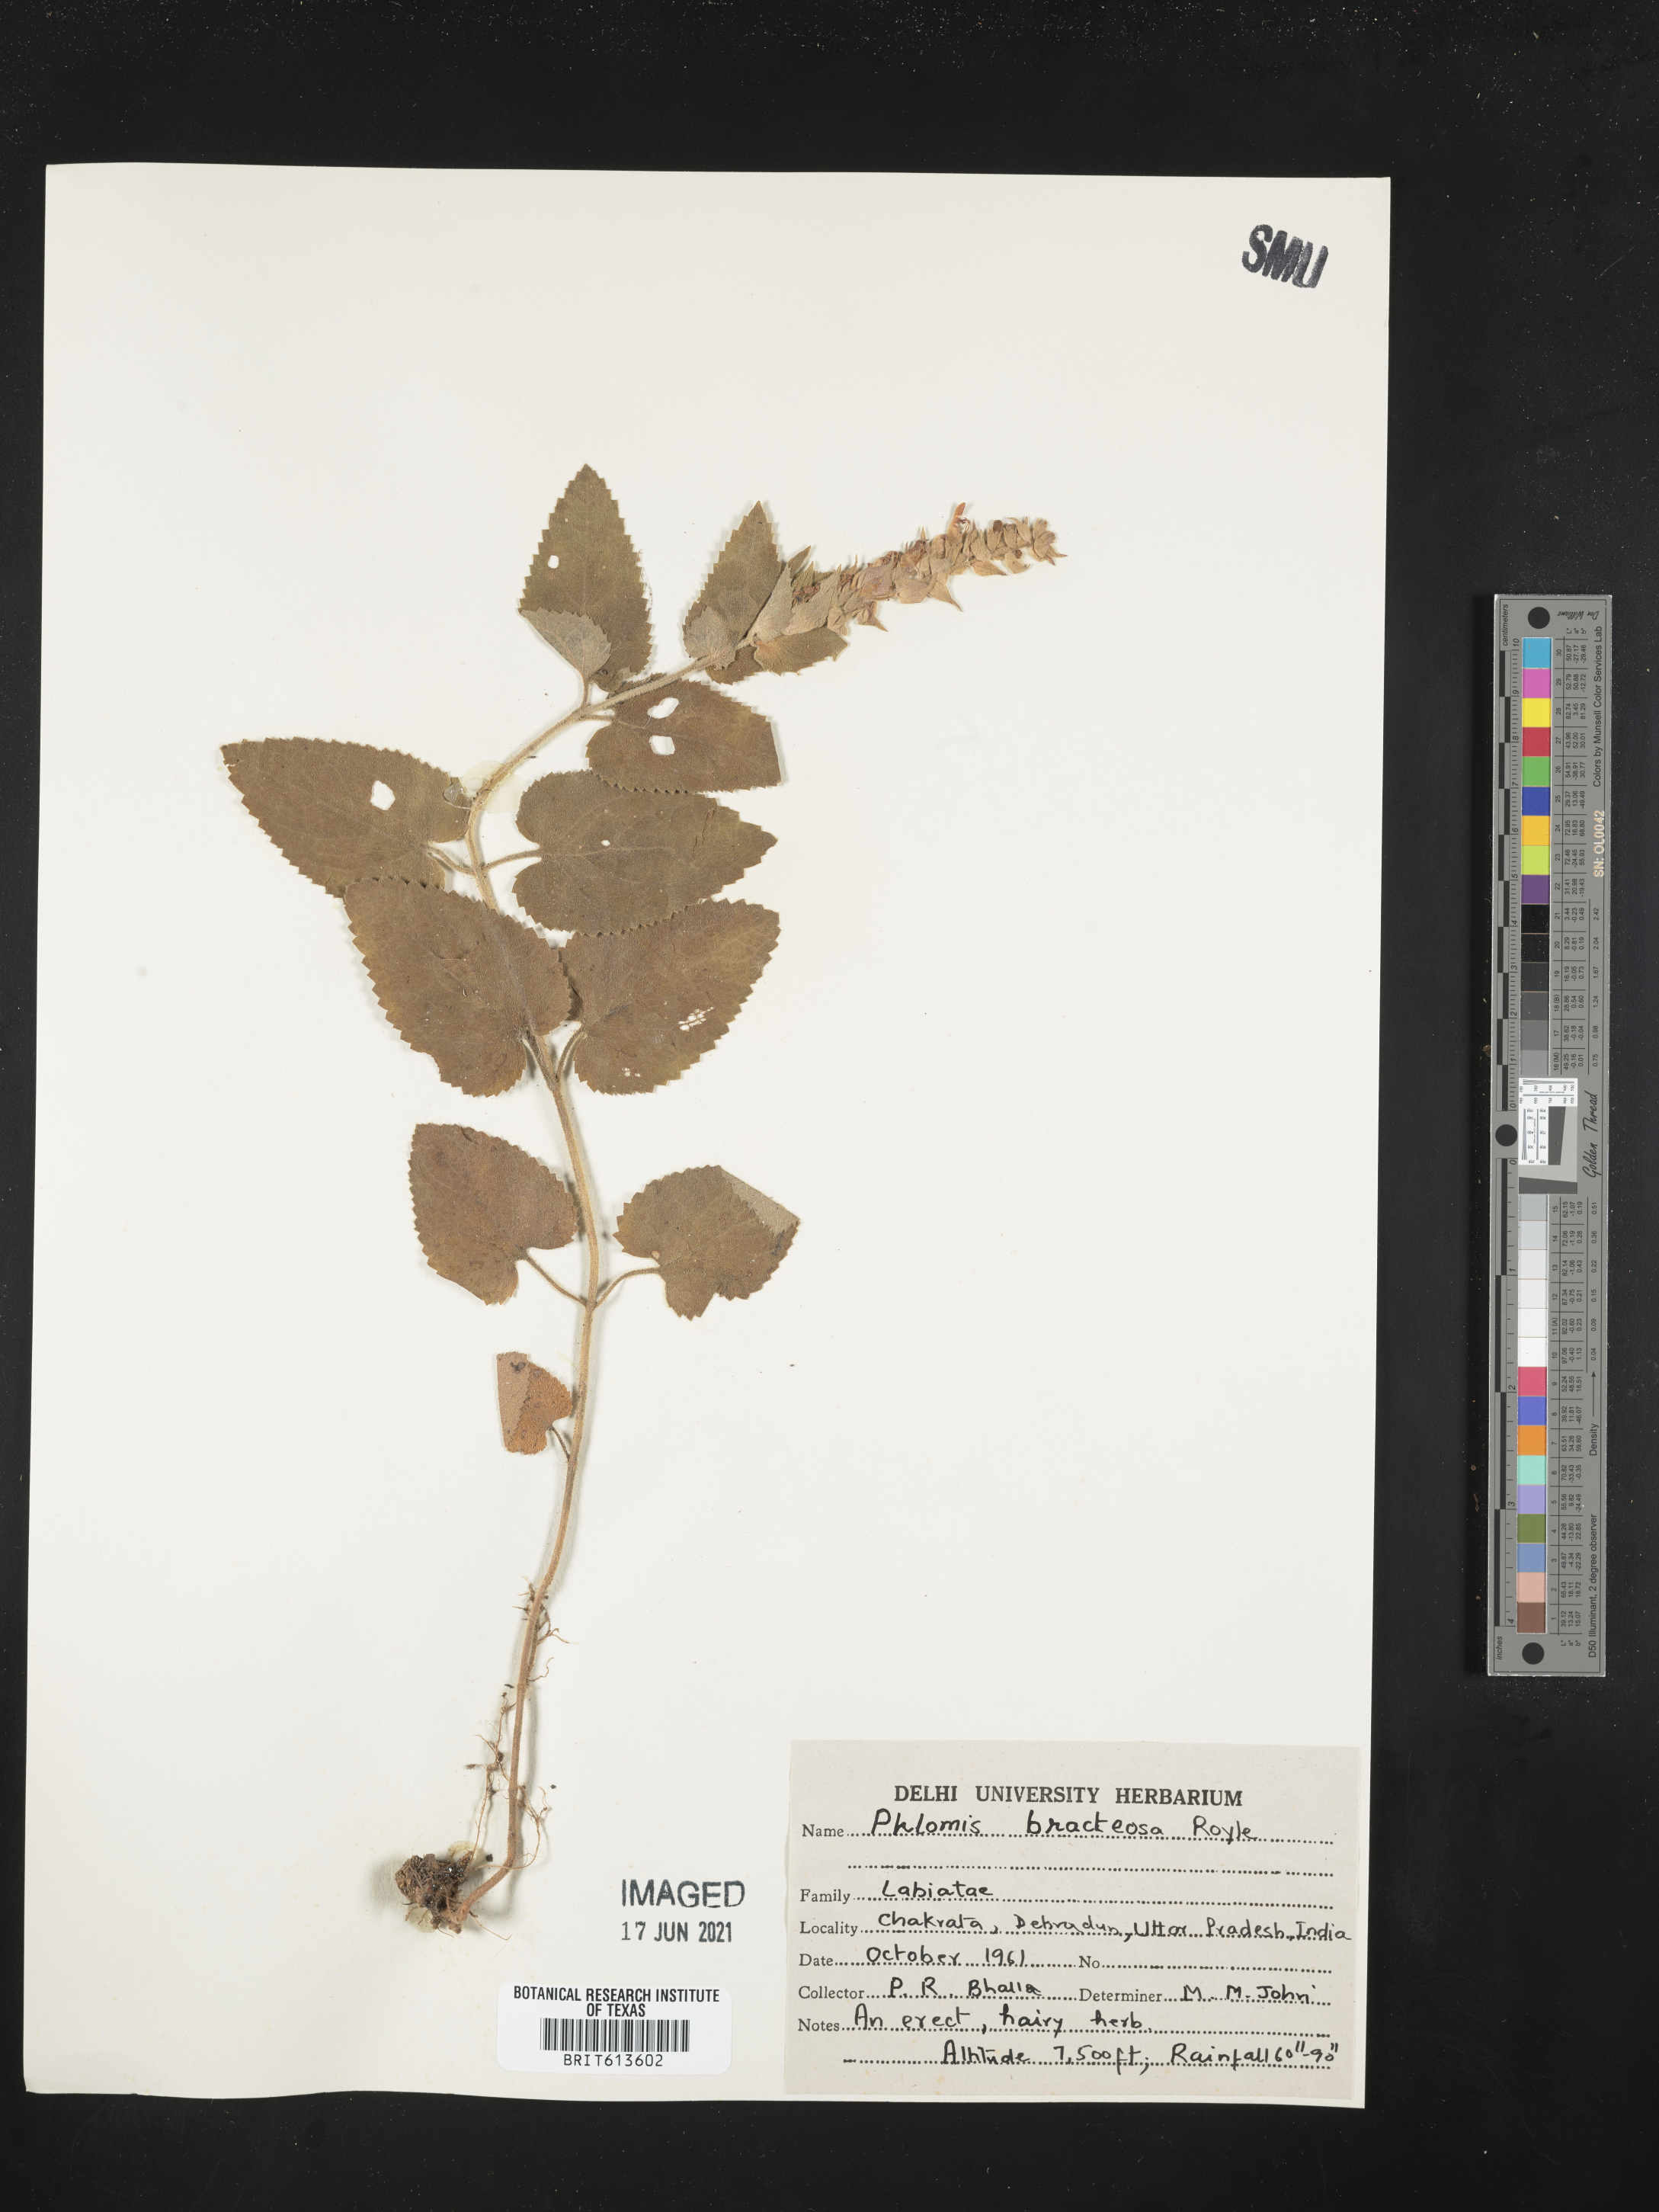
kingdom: Plantae
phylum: Tracheophyta
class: Magnoliopsida
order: Lamiales
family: Lamiaceae
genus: Phlomoides
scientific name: Phlomoides bracteosa
